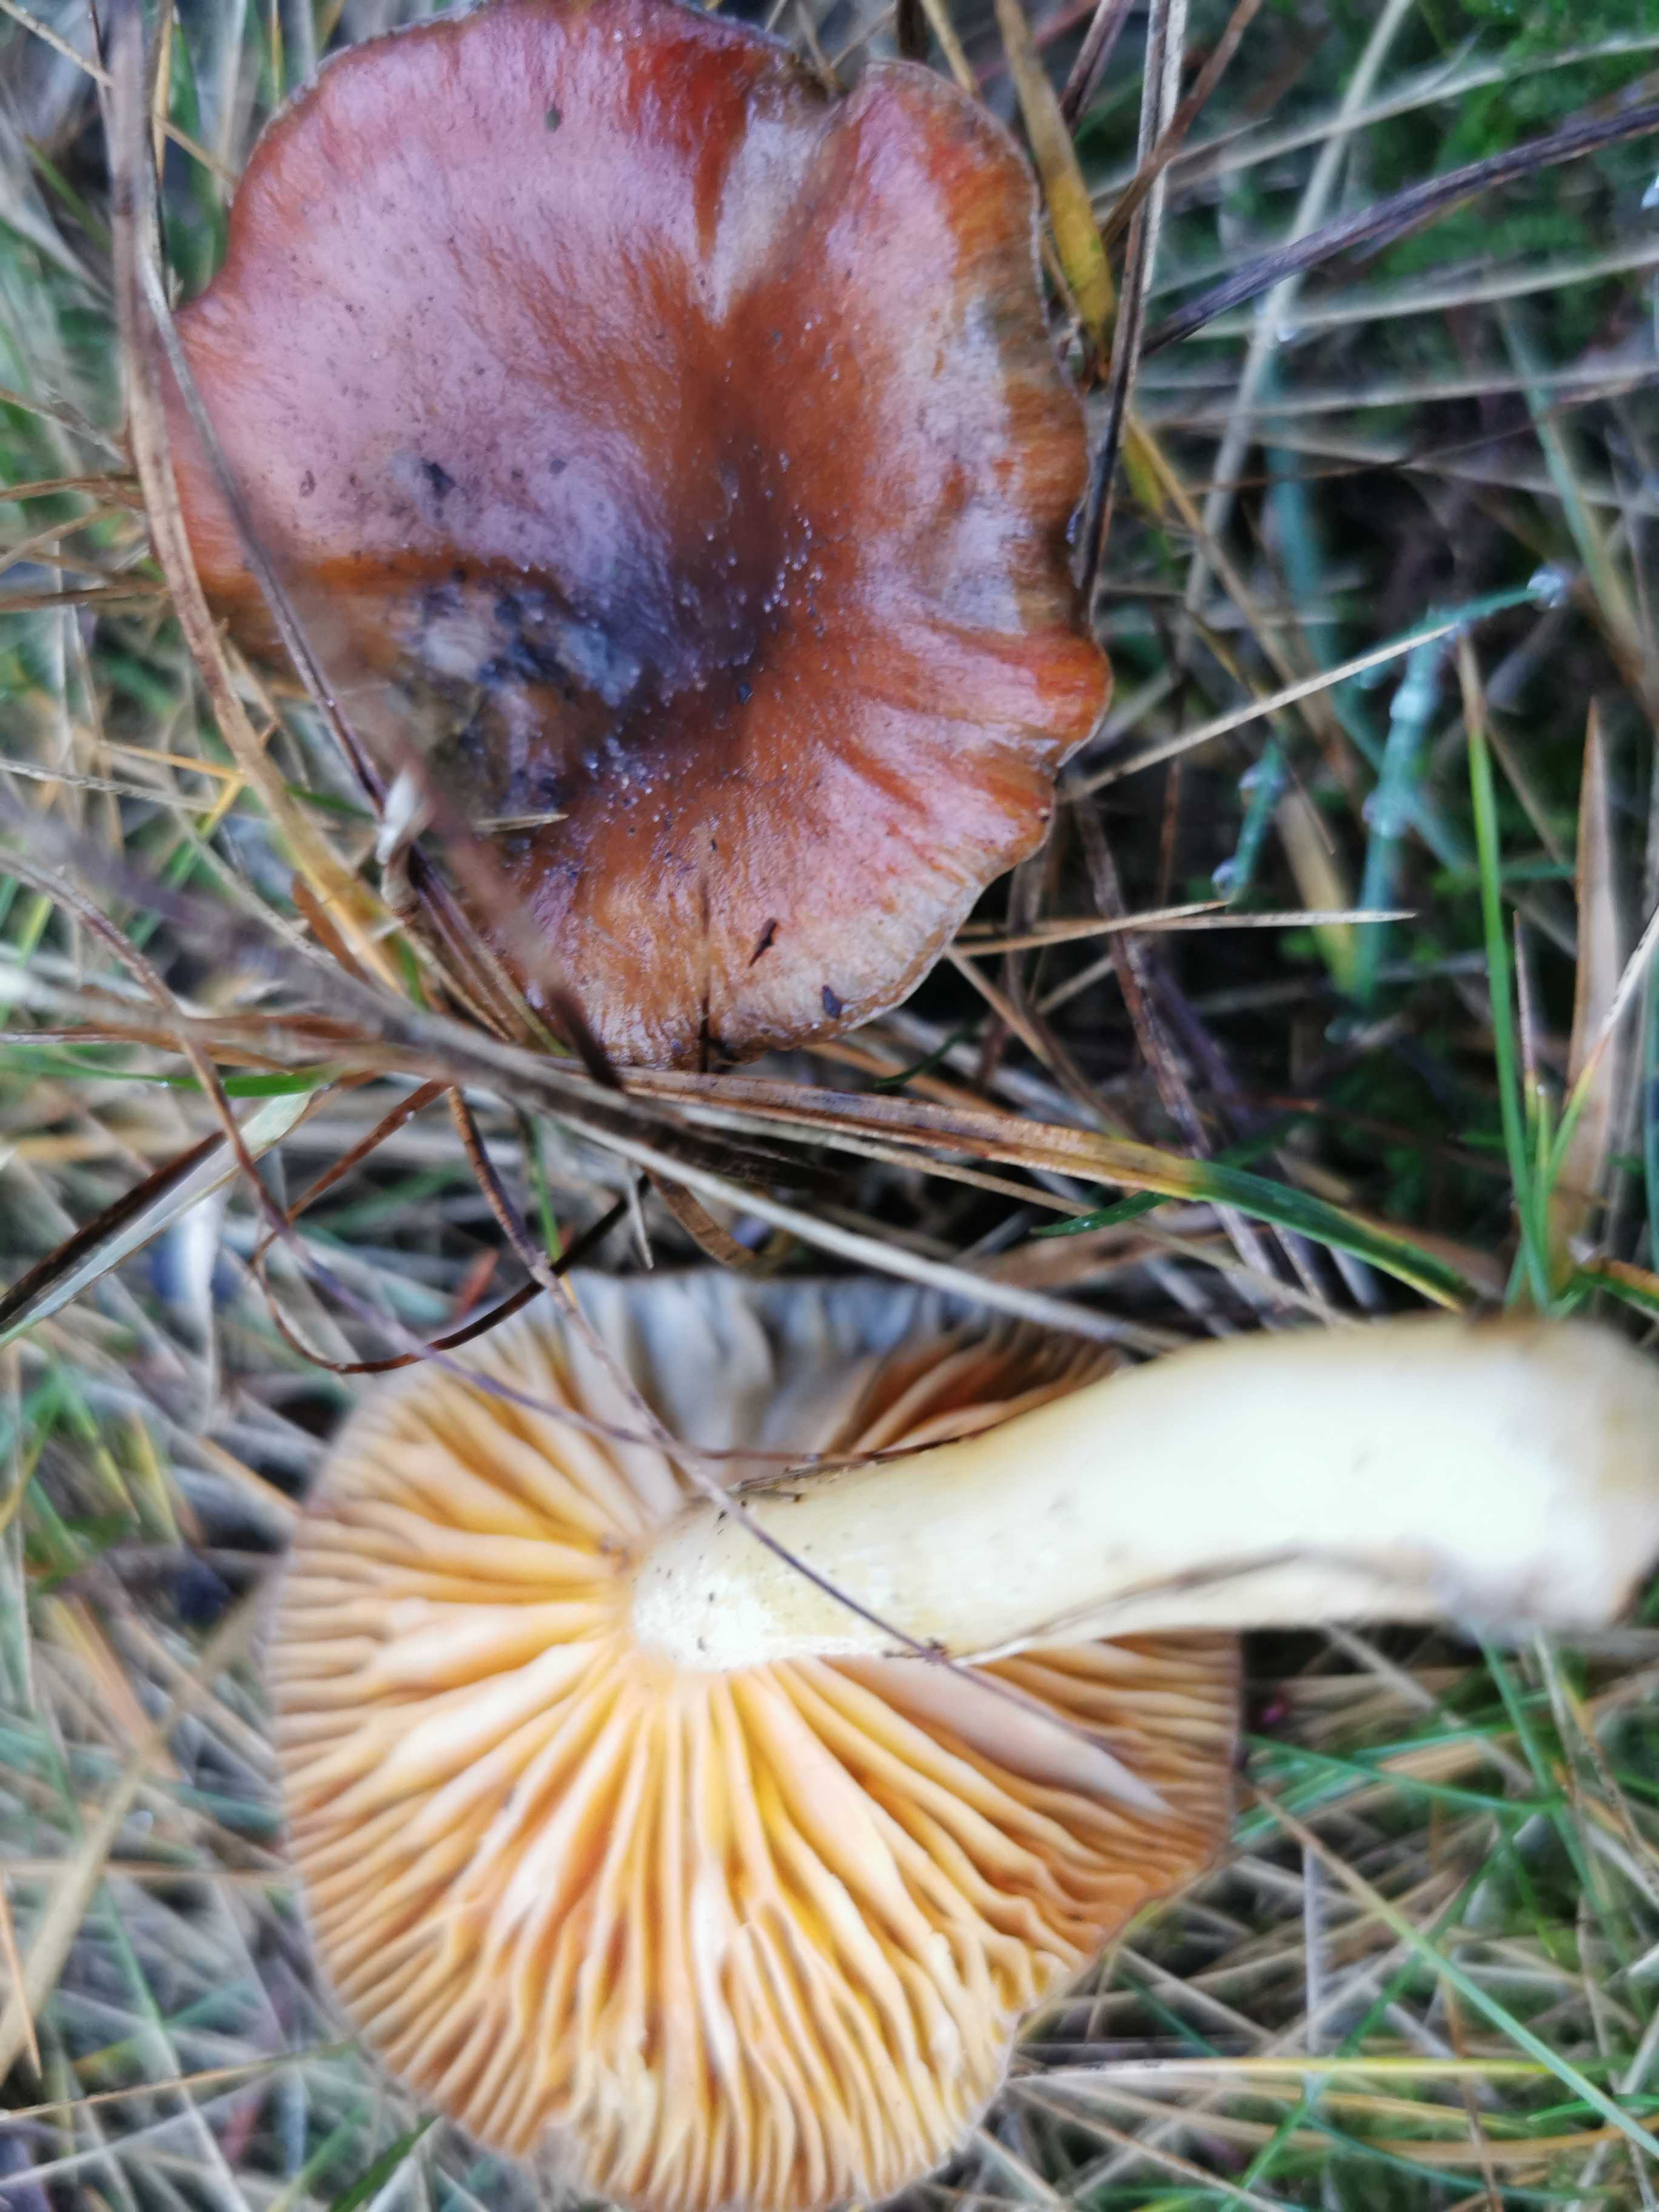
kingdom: Fungi
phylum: Basidiomycota
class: Agaricomycetes
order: Agaricales
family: Hygrophoraceae
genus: Hygrophorus
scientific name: Hygrophorus hypothejus
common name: frost-sneglehat
